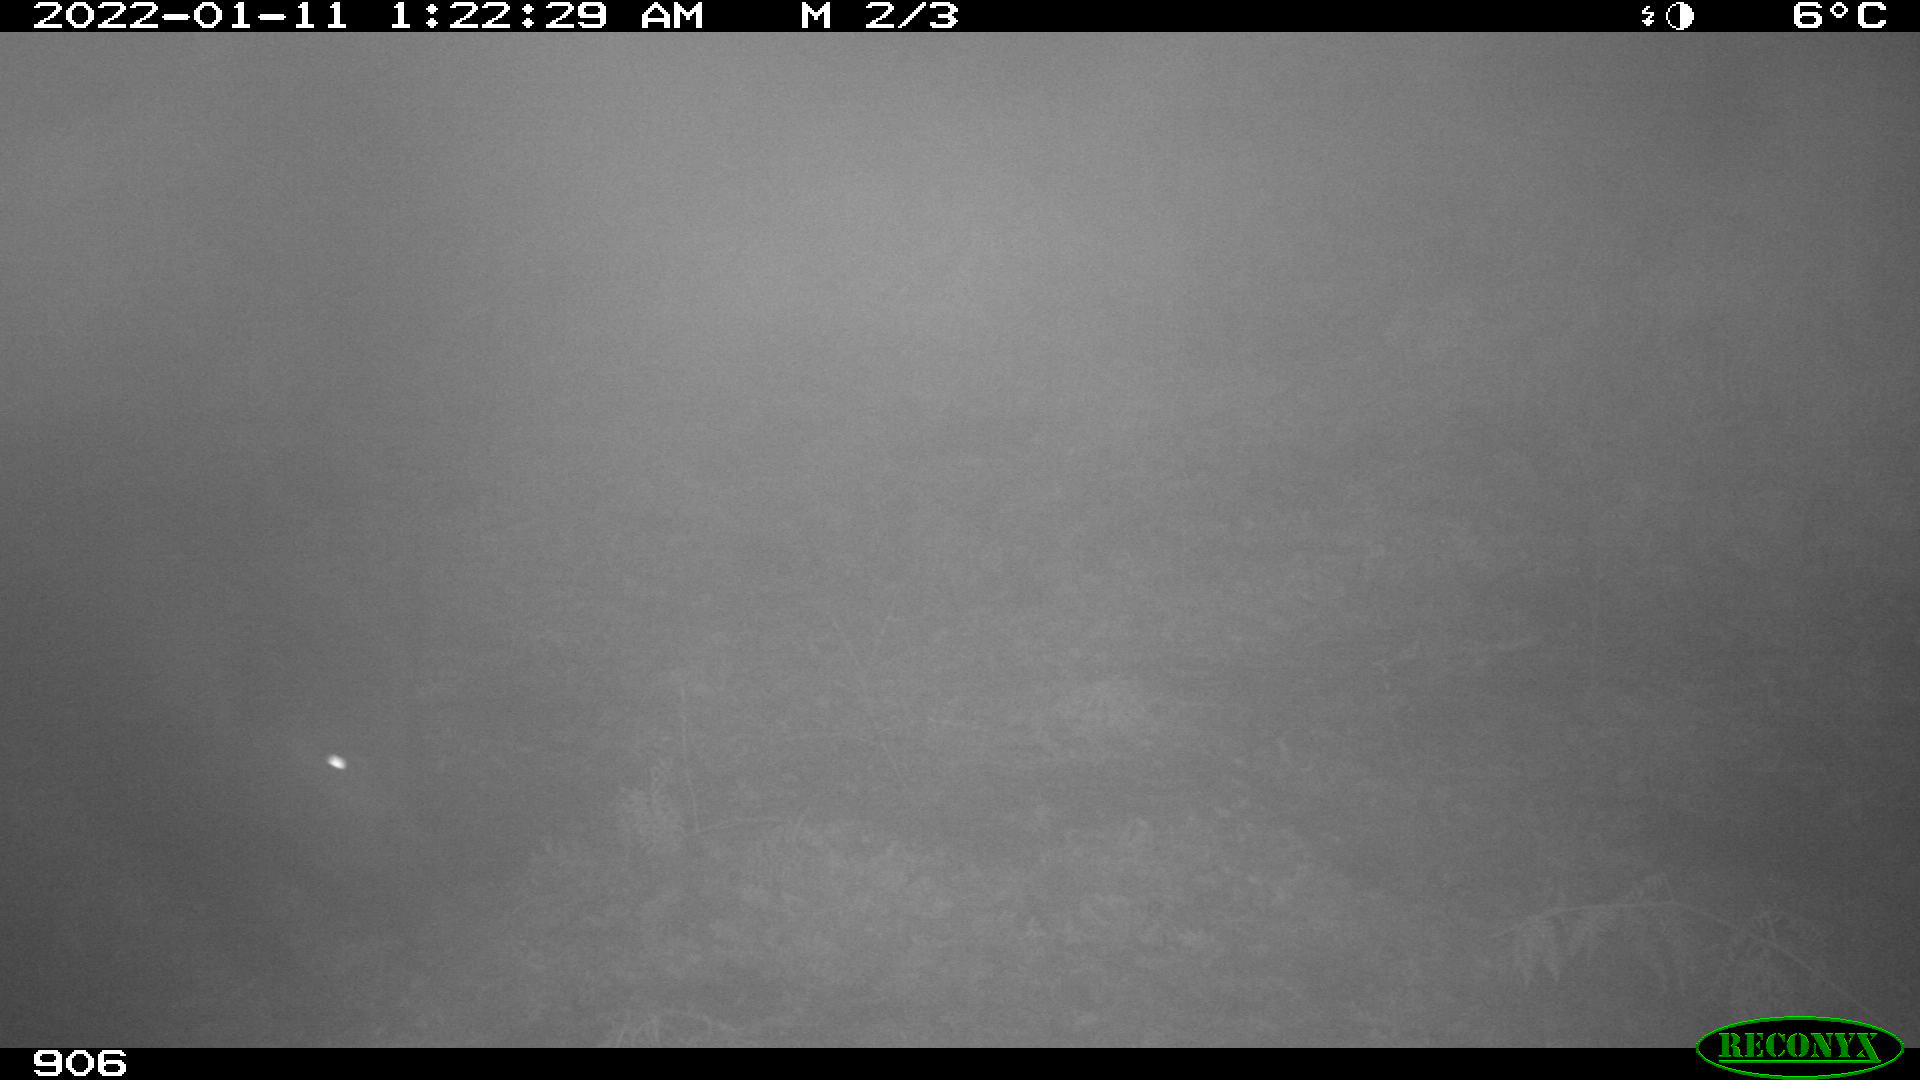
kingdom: Animalia
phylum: Chordata
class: Mammalia
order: Perissodactyla
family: Equidae
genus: Equus
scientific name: Equus caballus
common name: Horse
